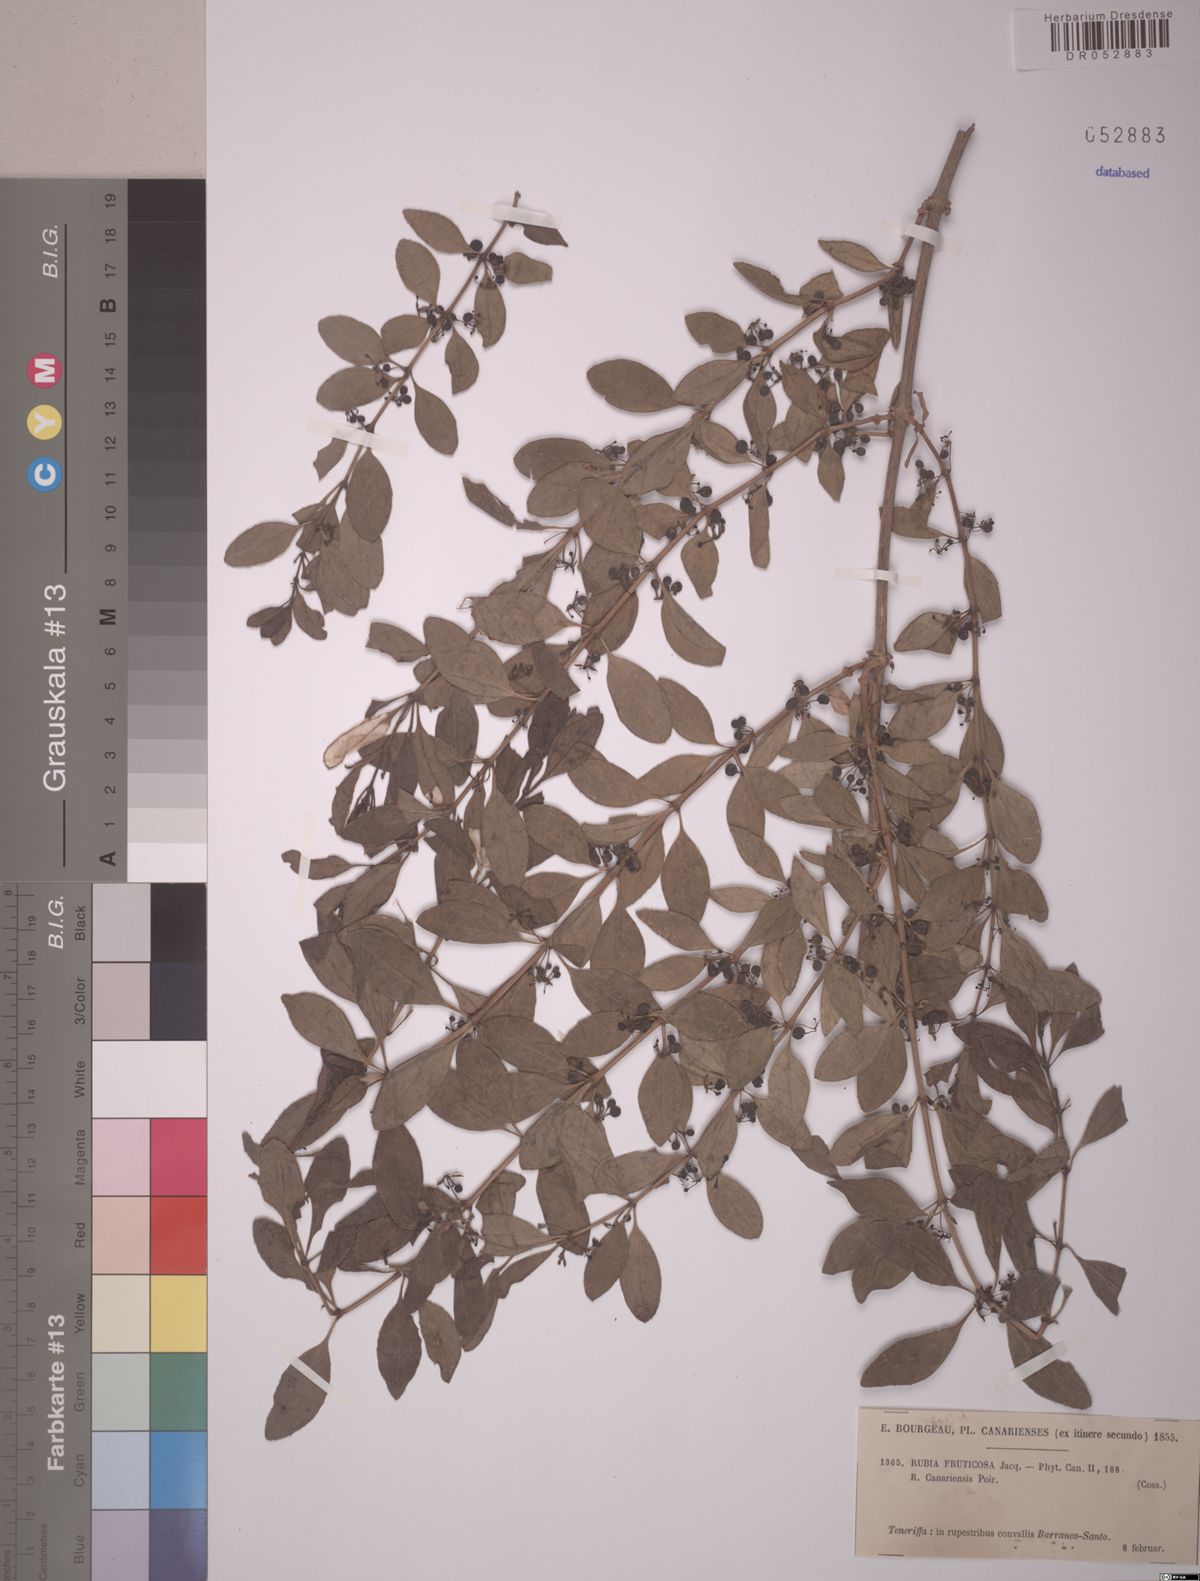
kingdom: Plantae
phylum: Tracheophyta
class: Magnoliopsida
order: Gentianales
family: Rubiaceae
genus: Rubia
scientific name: Rubia fruticosa
